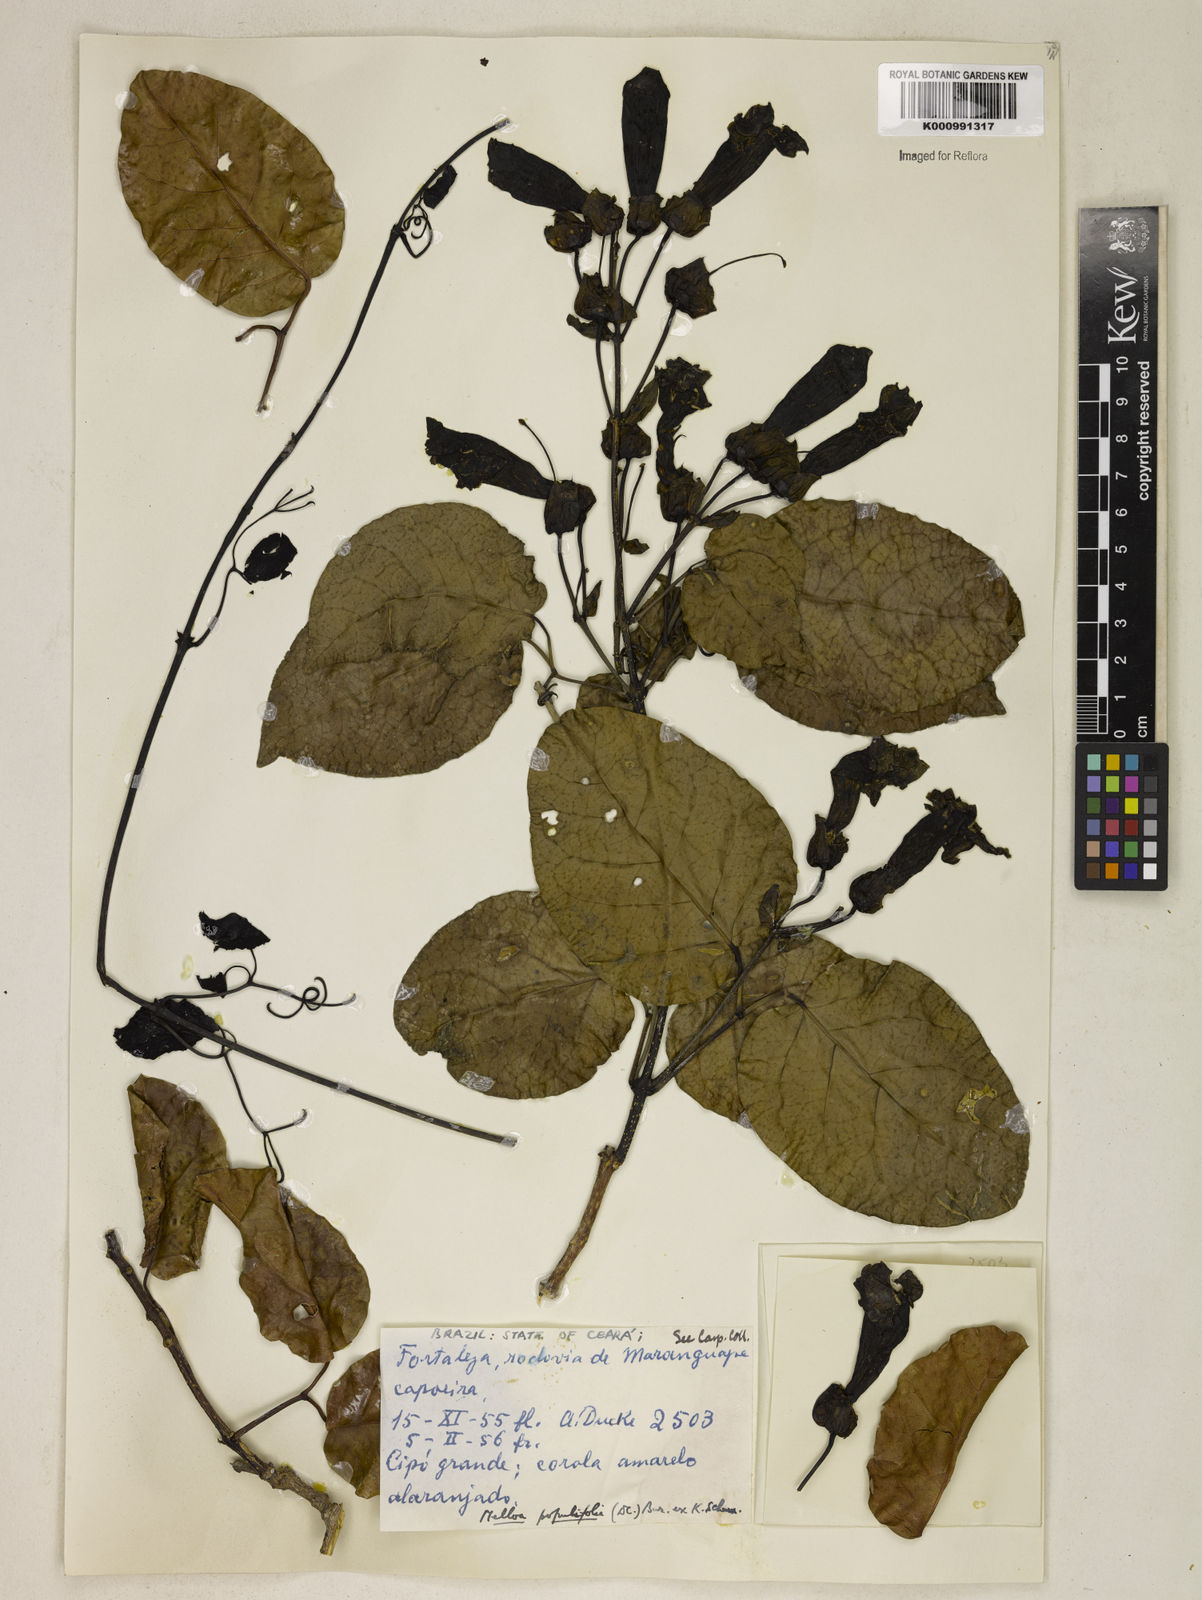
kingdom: Plantae
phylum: Tracheophyta
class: Magnoliopsida
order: Lamiales
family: Bignoniaceae
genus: Dolichandra
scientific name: Dolichandra quadrivalvis
